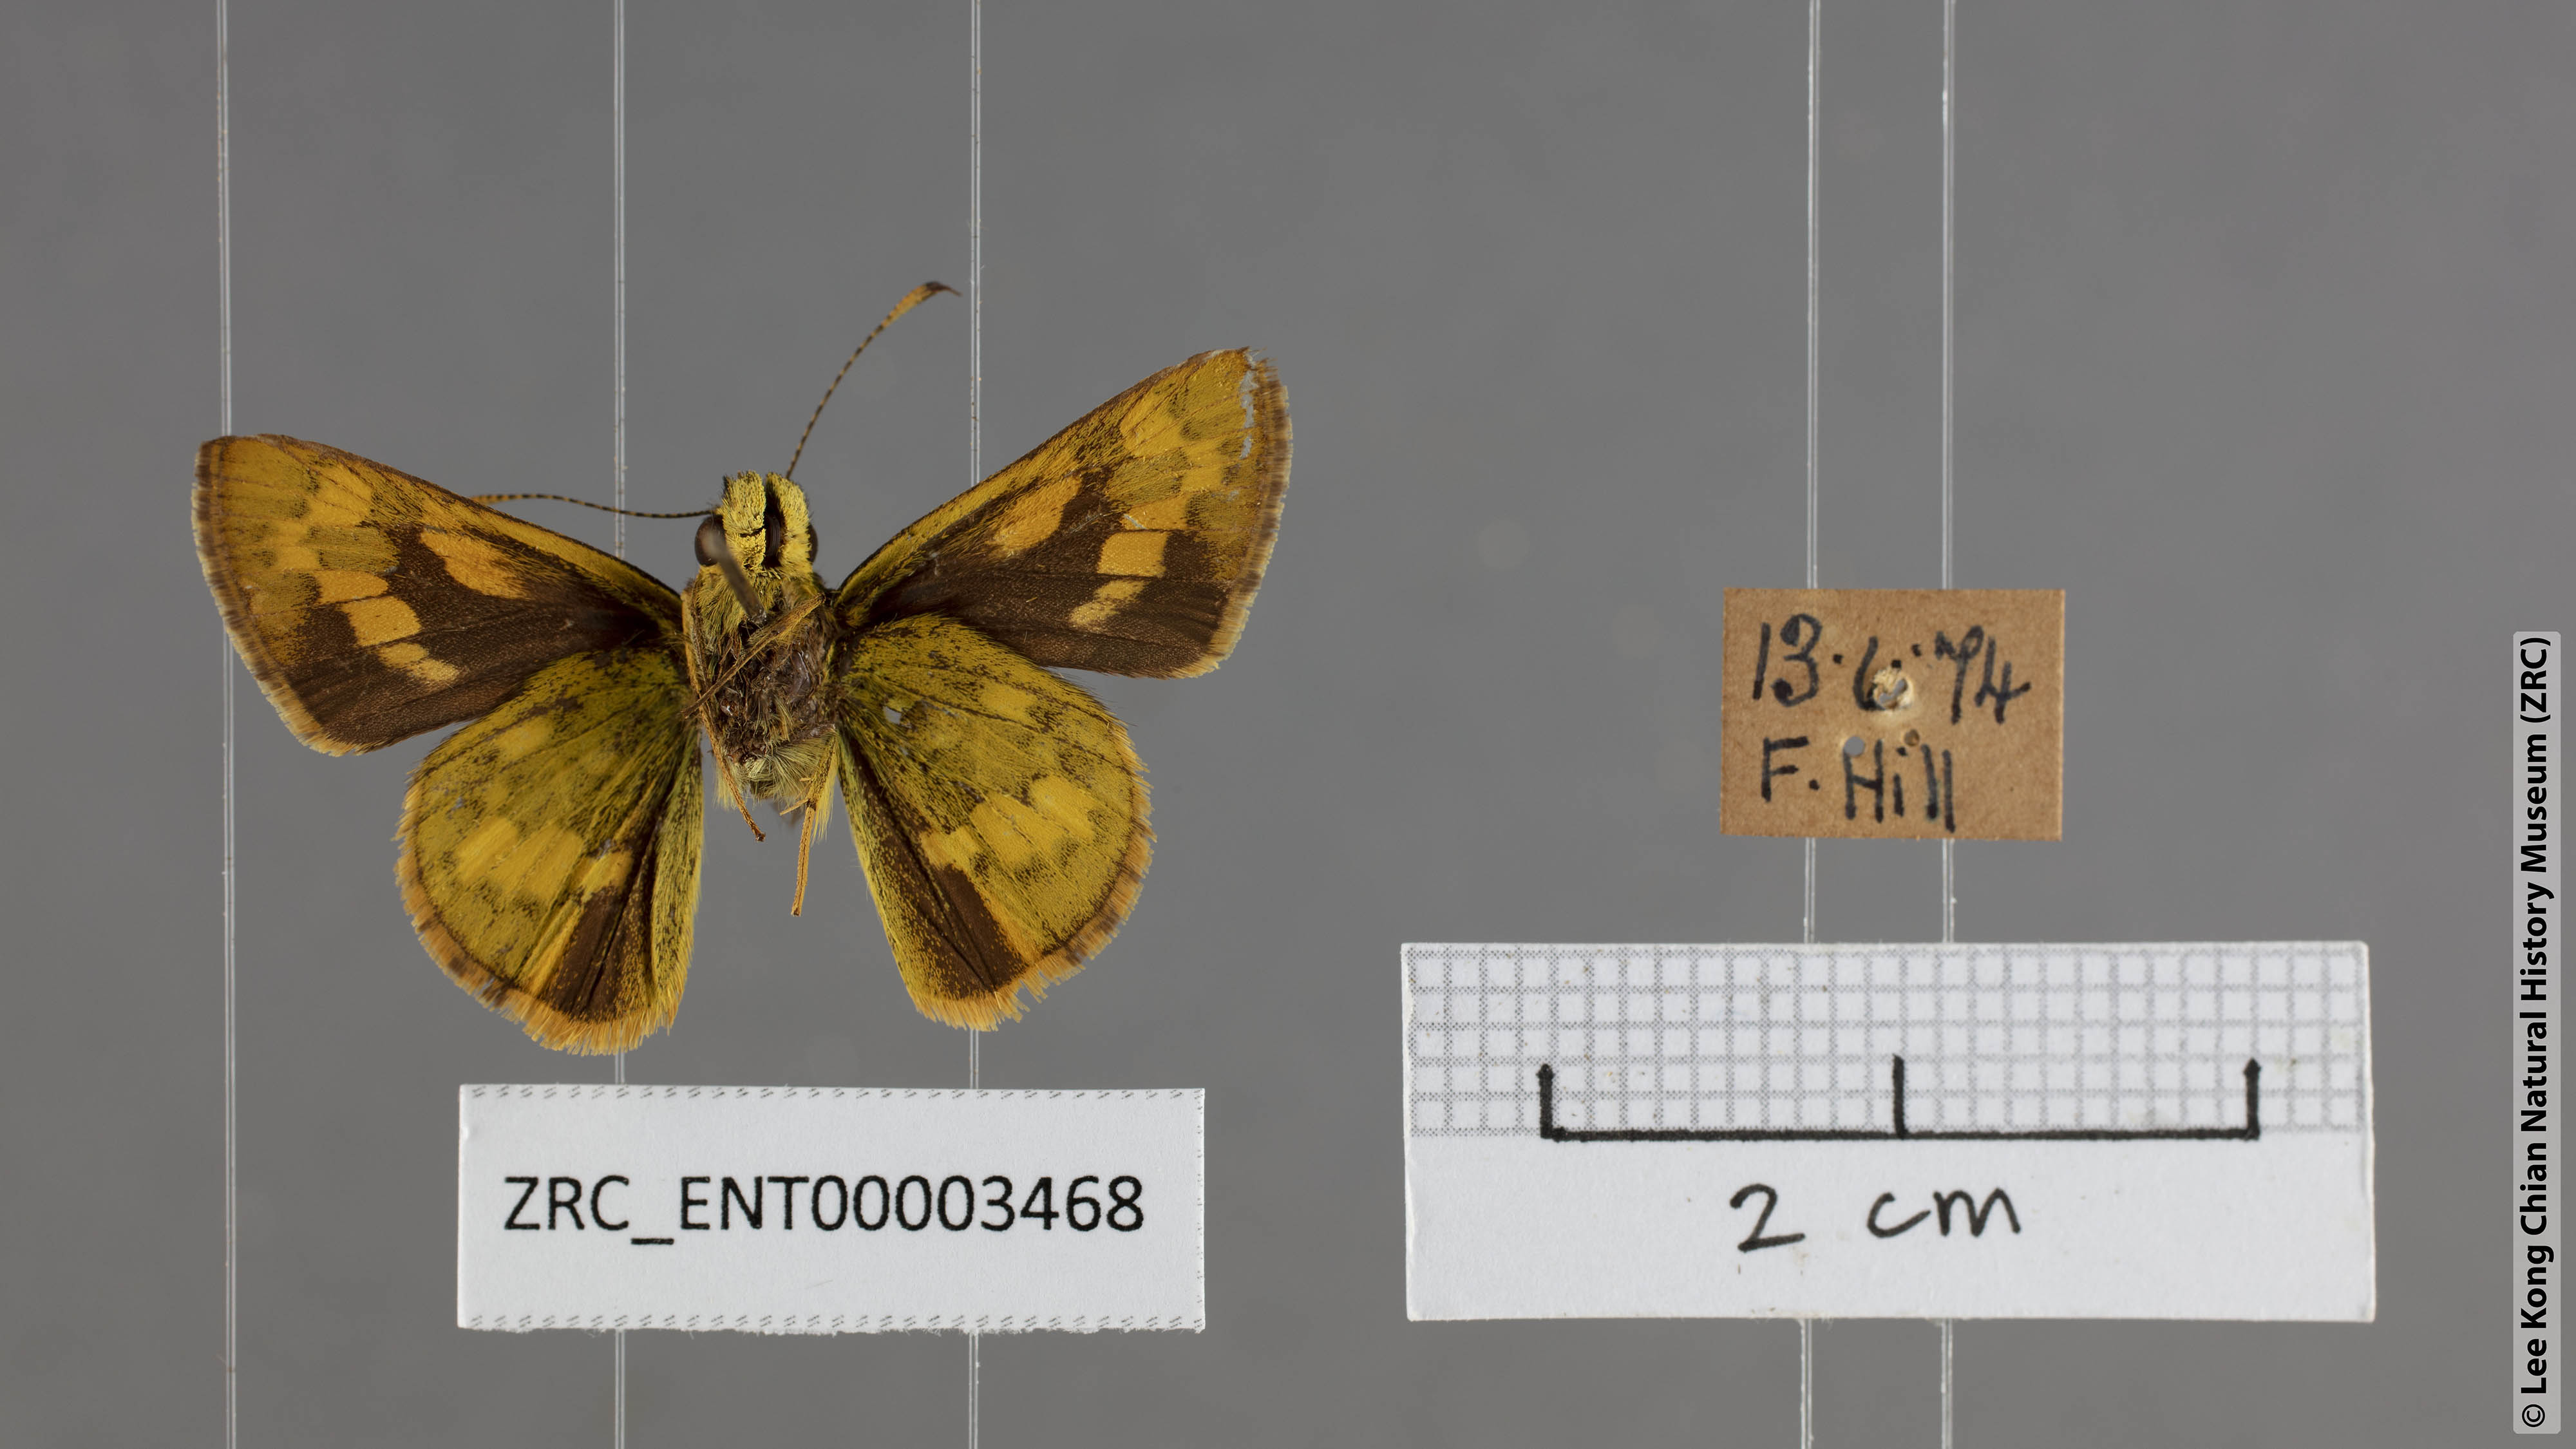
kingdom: Animalia
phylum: Arthropoda
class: Insecta
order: Lepidoptera
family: Hesperiidae
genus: Potanthus
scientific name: Potanthus lydia
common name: Lydia dart
